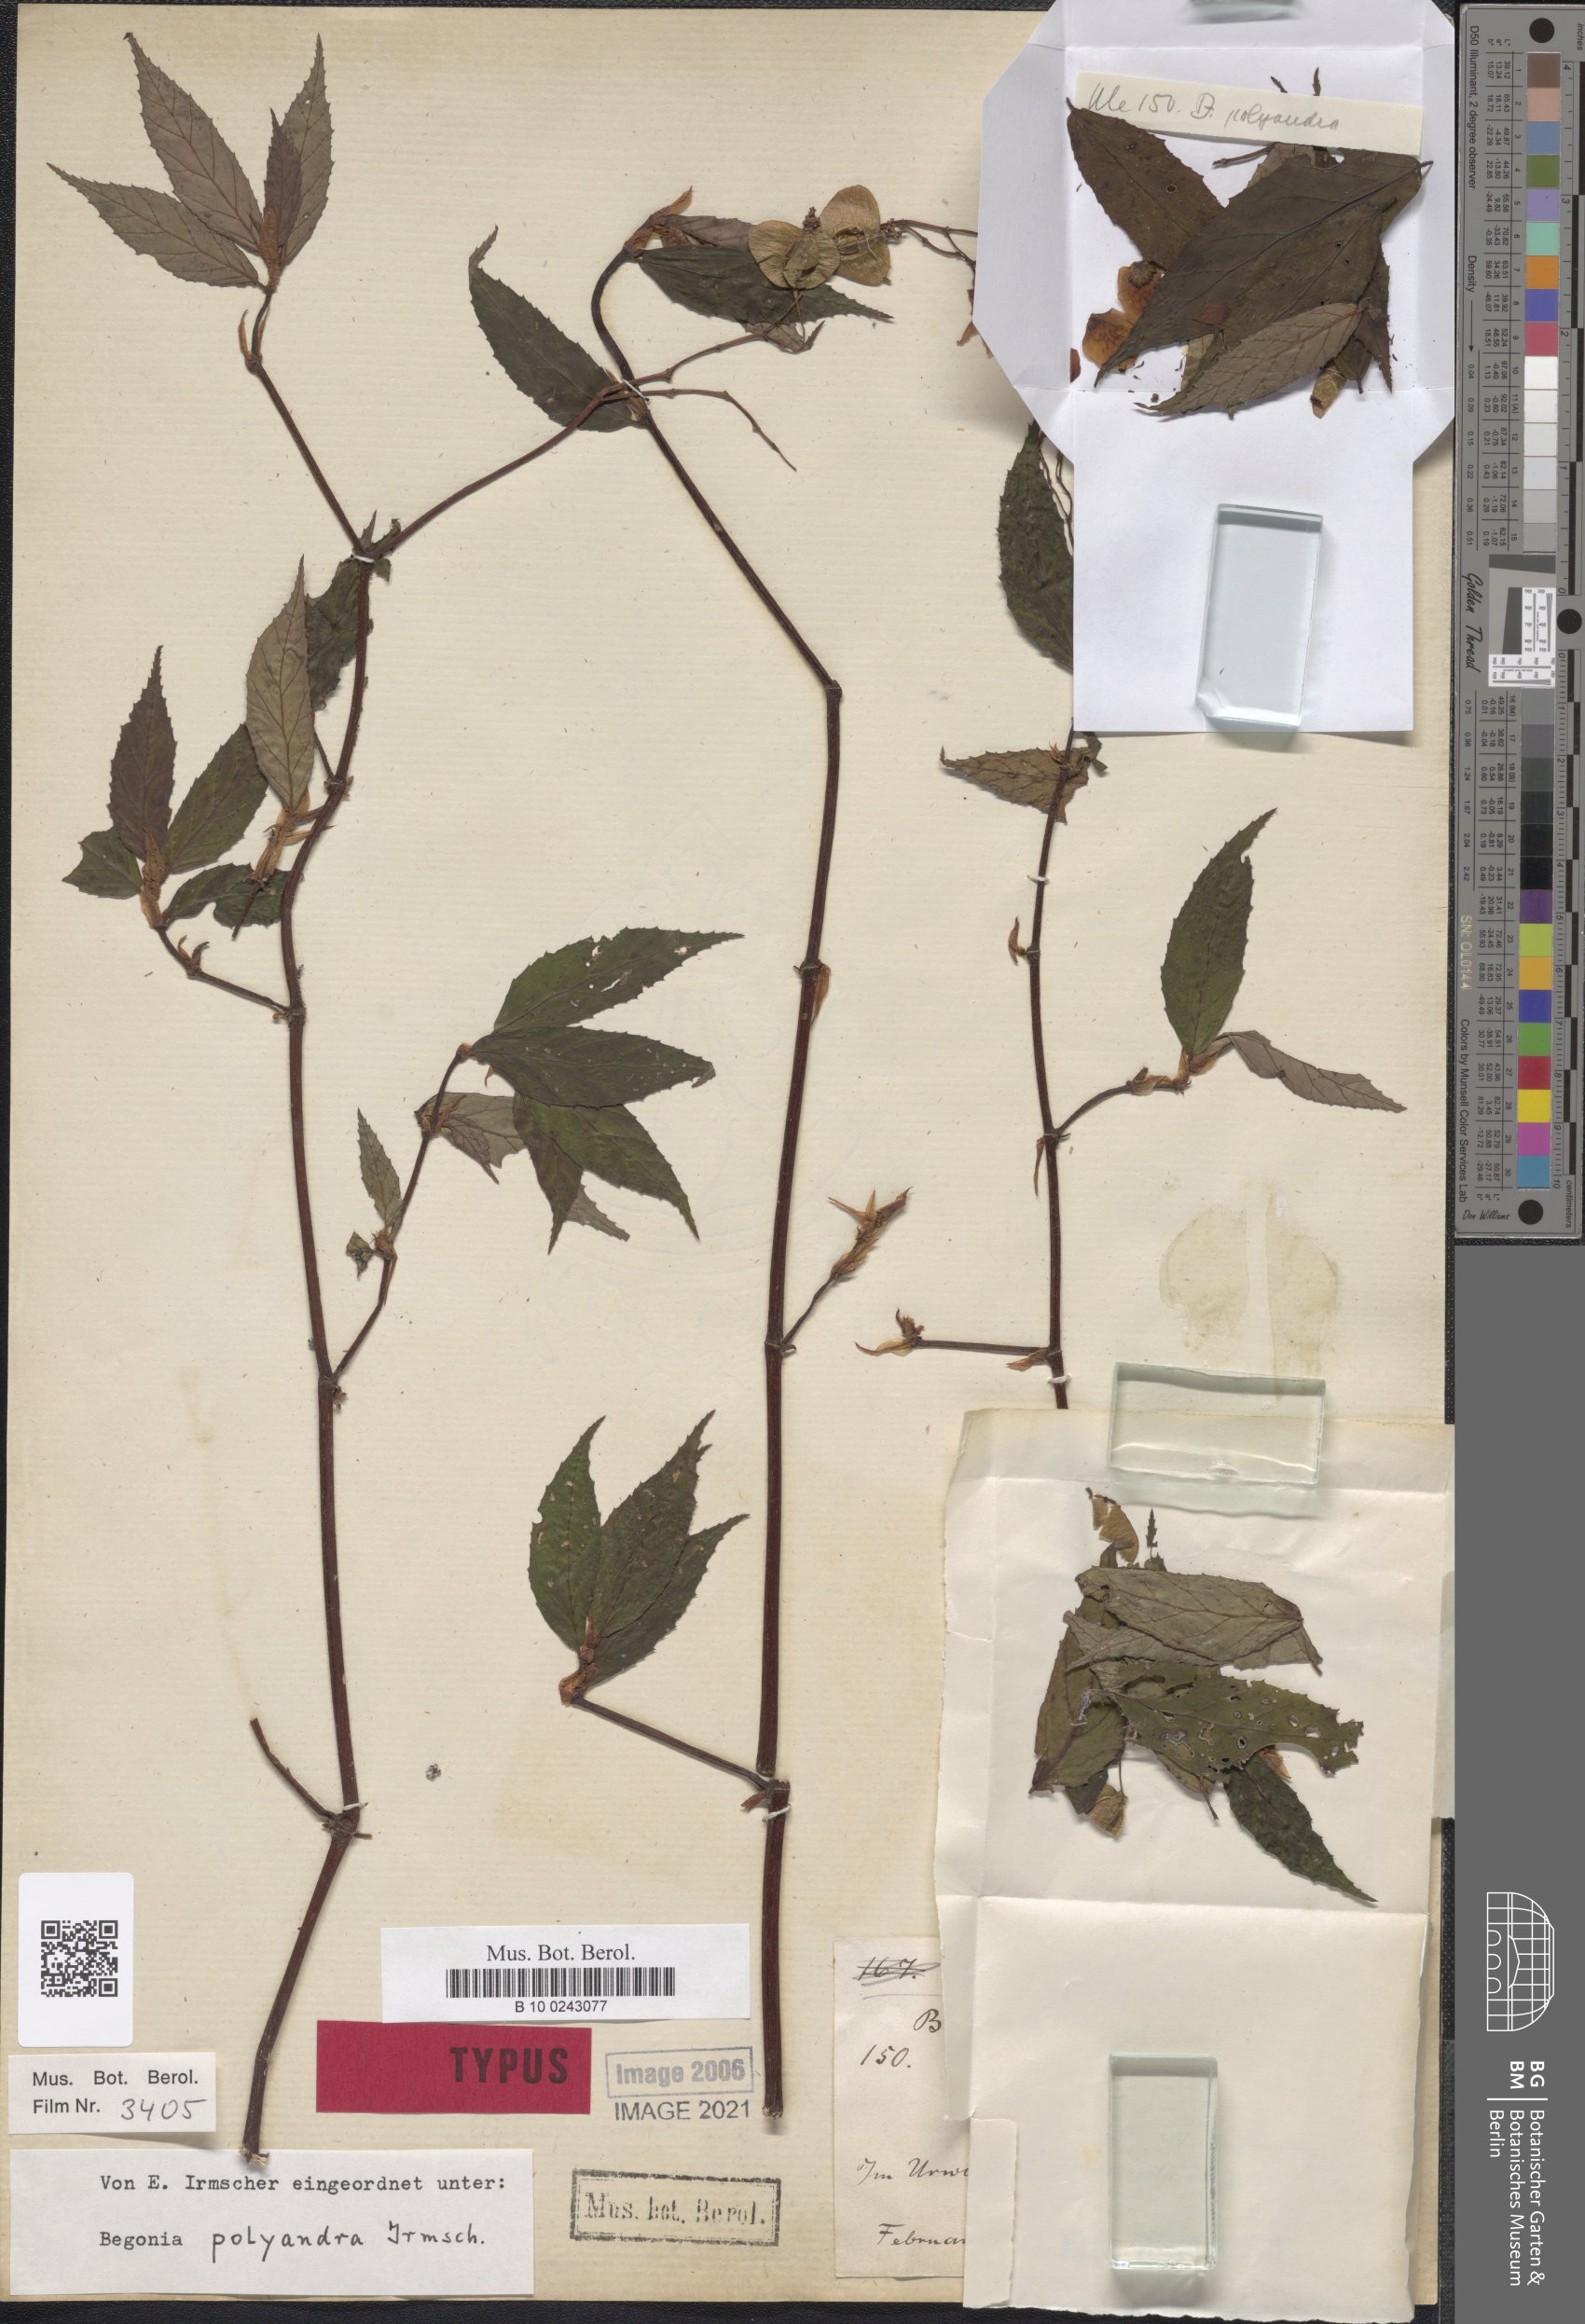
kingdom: Plantae
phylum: Tracheophyta
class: Magnoliopsida
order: Cucurbitales
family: Begoniaceae
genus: Begonia
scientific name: Begonia polyandra
